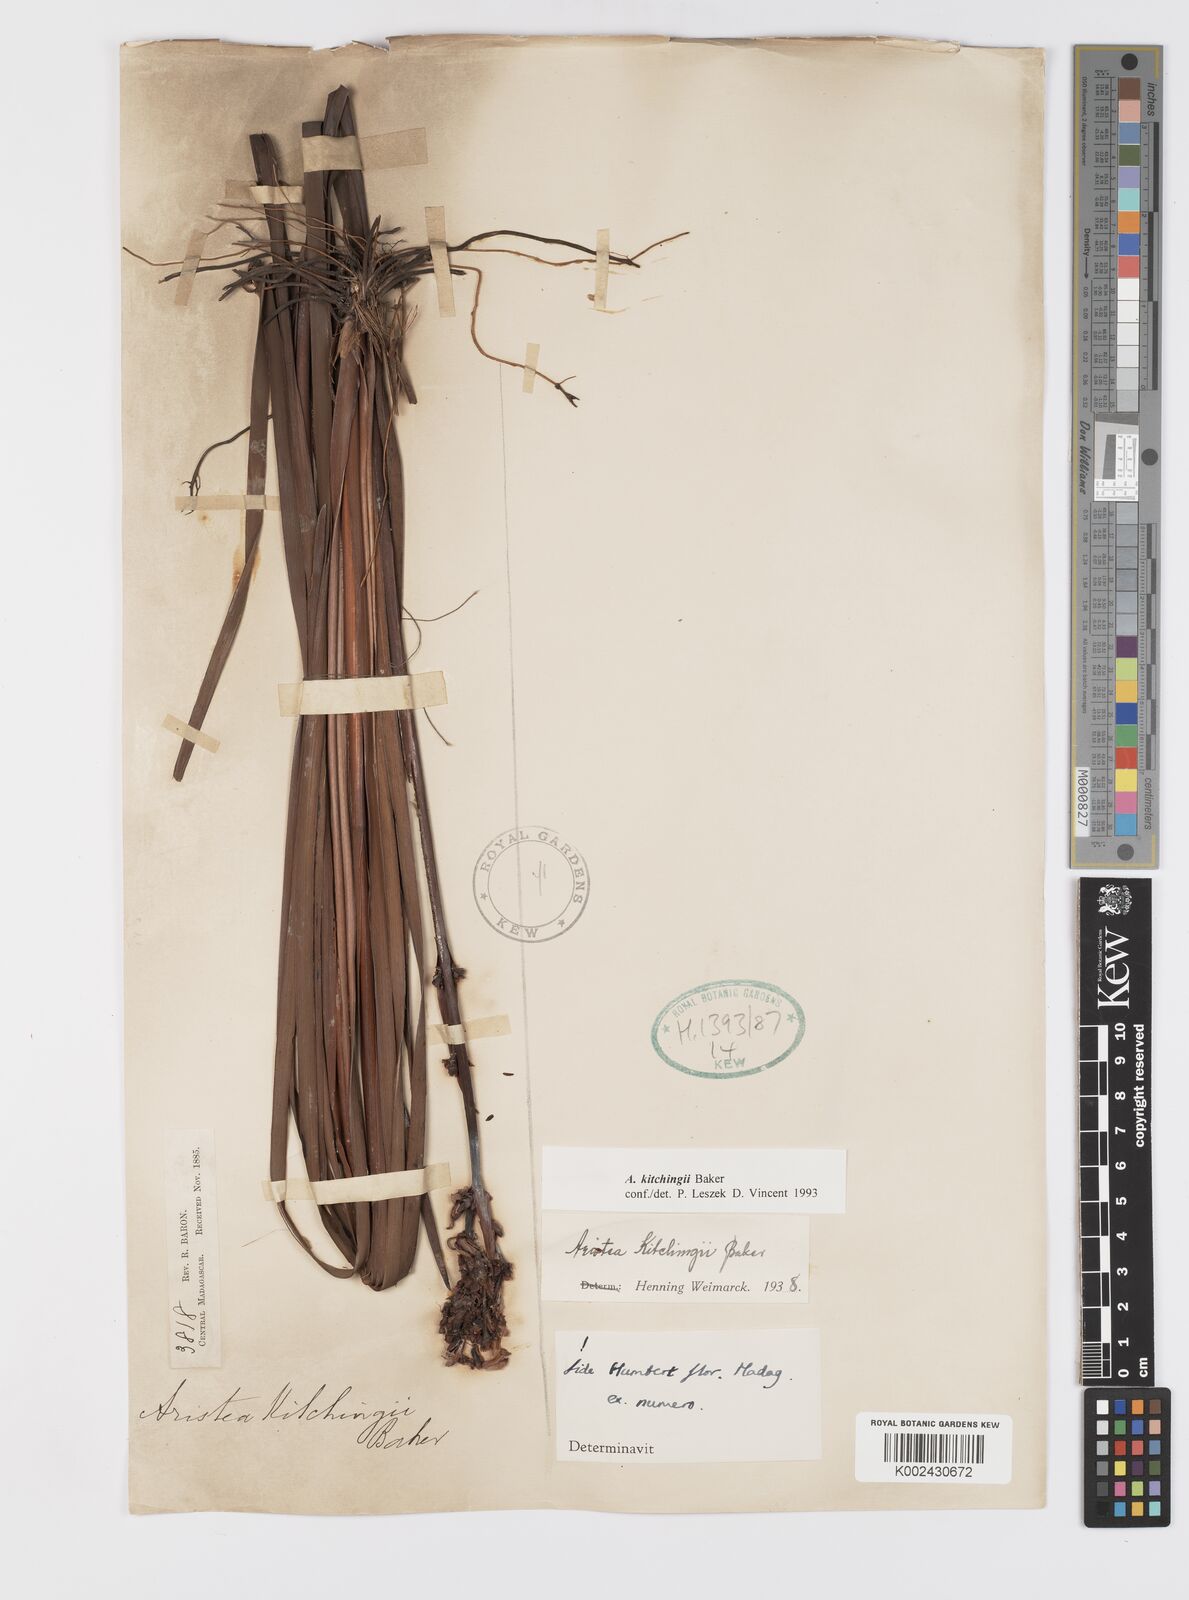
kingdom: Plantae
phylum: Tracheophyta
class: Liliopsida
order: Asparagales
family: Iridaceae
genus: Aristea
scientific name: Aristea kitchingii
